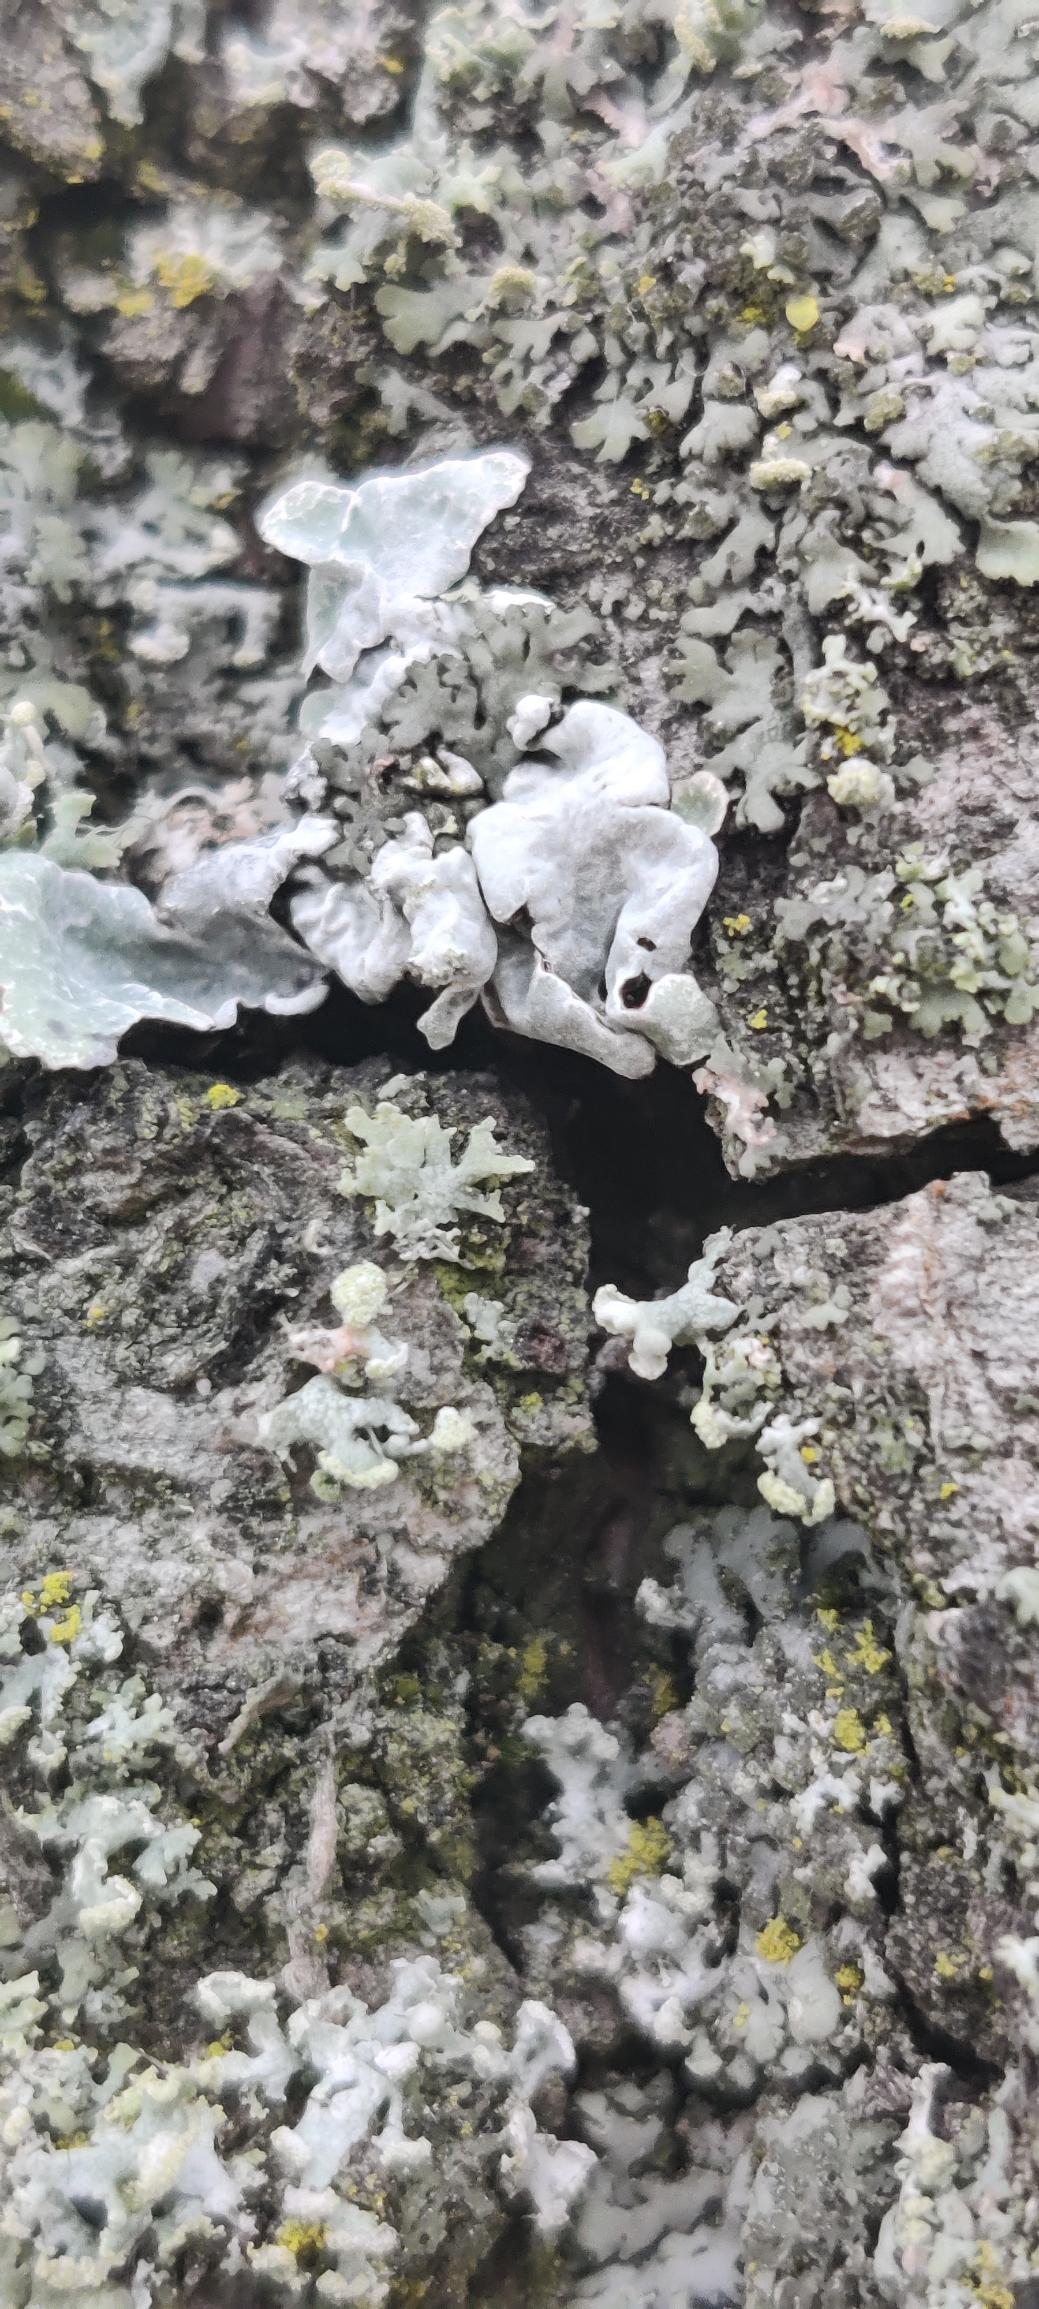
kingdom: Fungi
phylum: Ascomycota
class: Lecanoromycetes
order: Lecanorales
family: Parmeliaceae
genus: Parmelia
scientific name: Parmelia sulcata
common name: Rynket skållav
